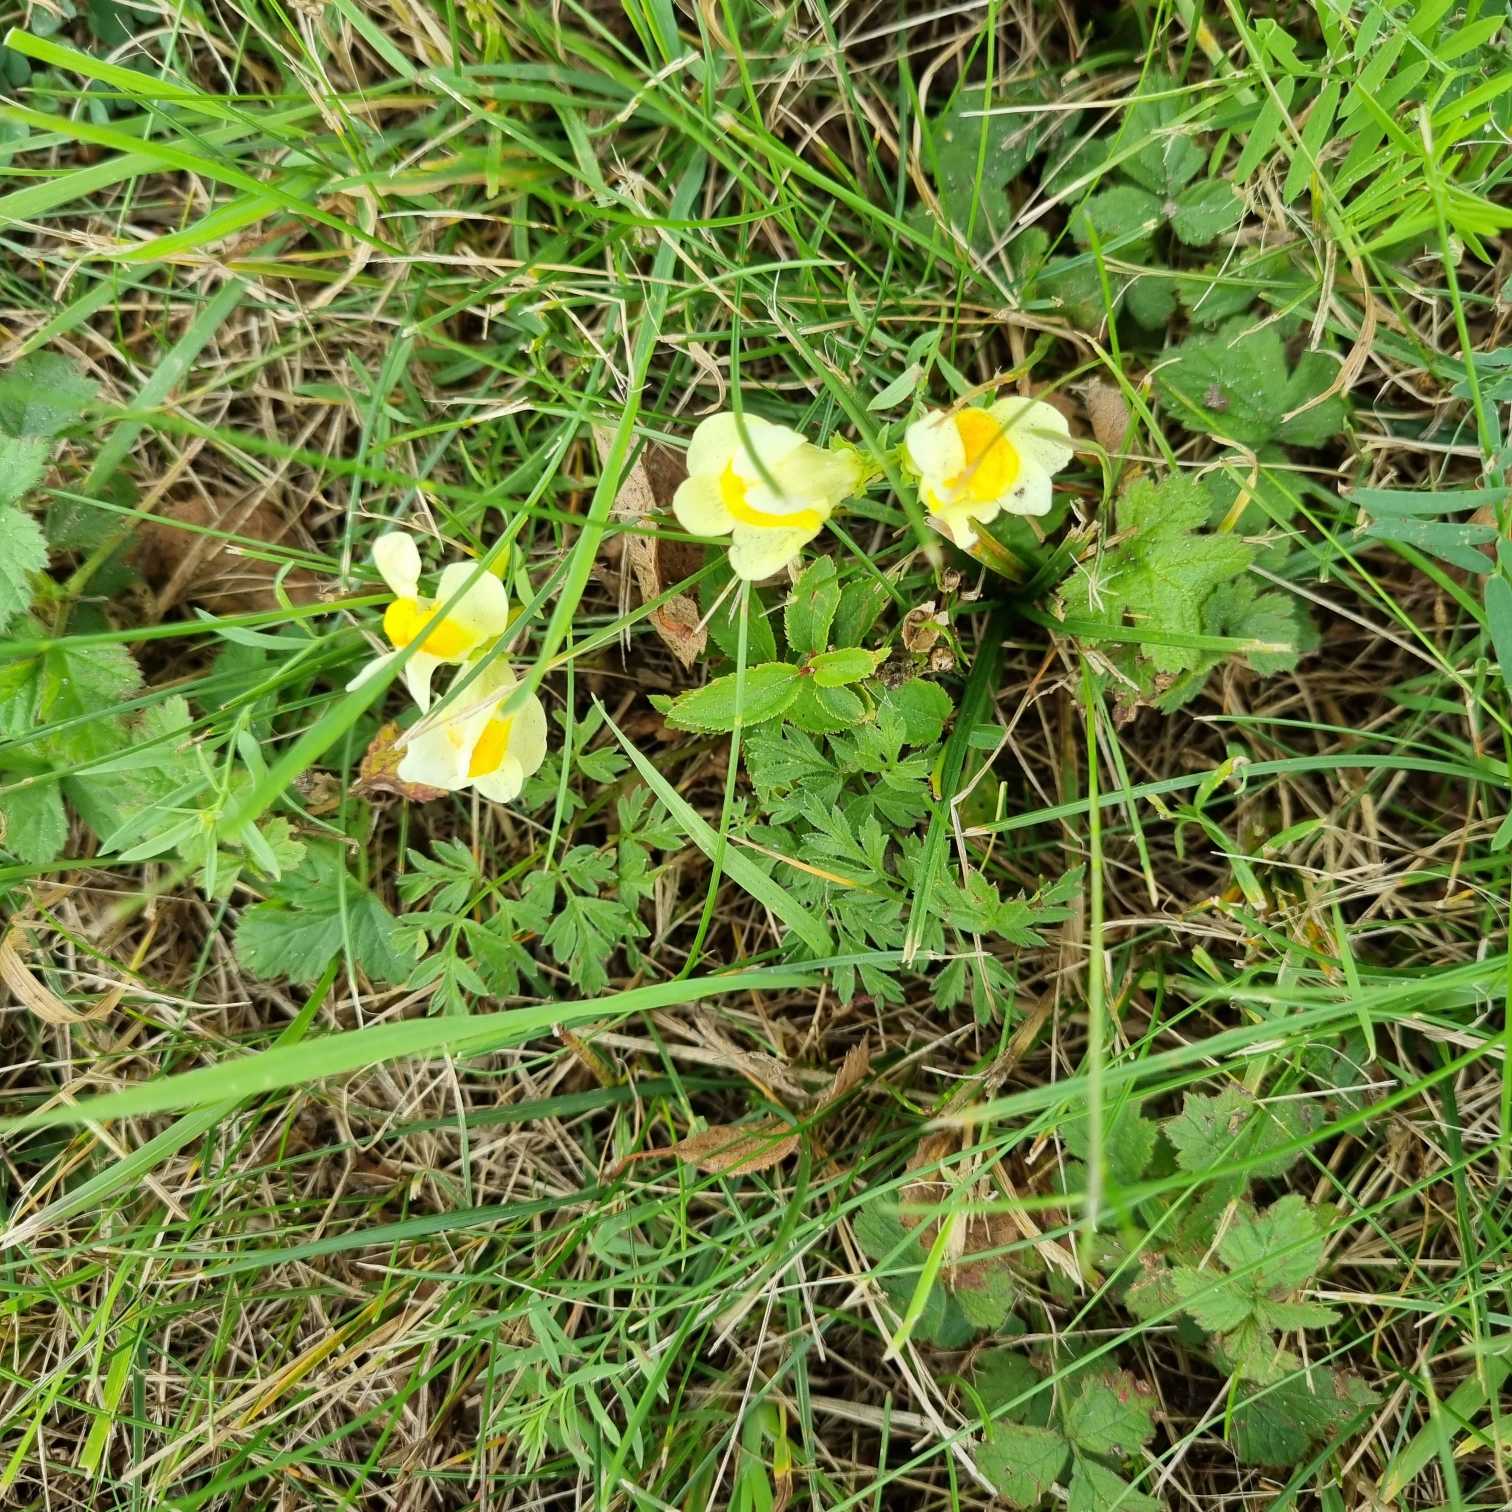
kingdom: Plantae
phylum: Tracheophyta
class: Magnoliopsida
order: Lamiales
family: Plantaginaceae
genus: Linaria
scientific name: Linaria vulgaris
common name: Almindelig torskemund
